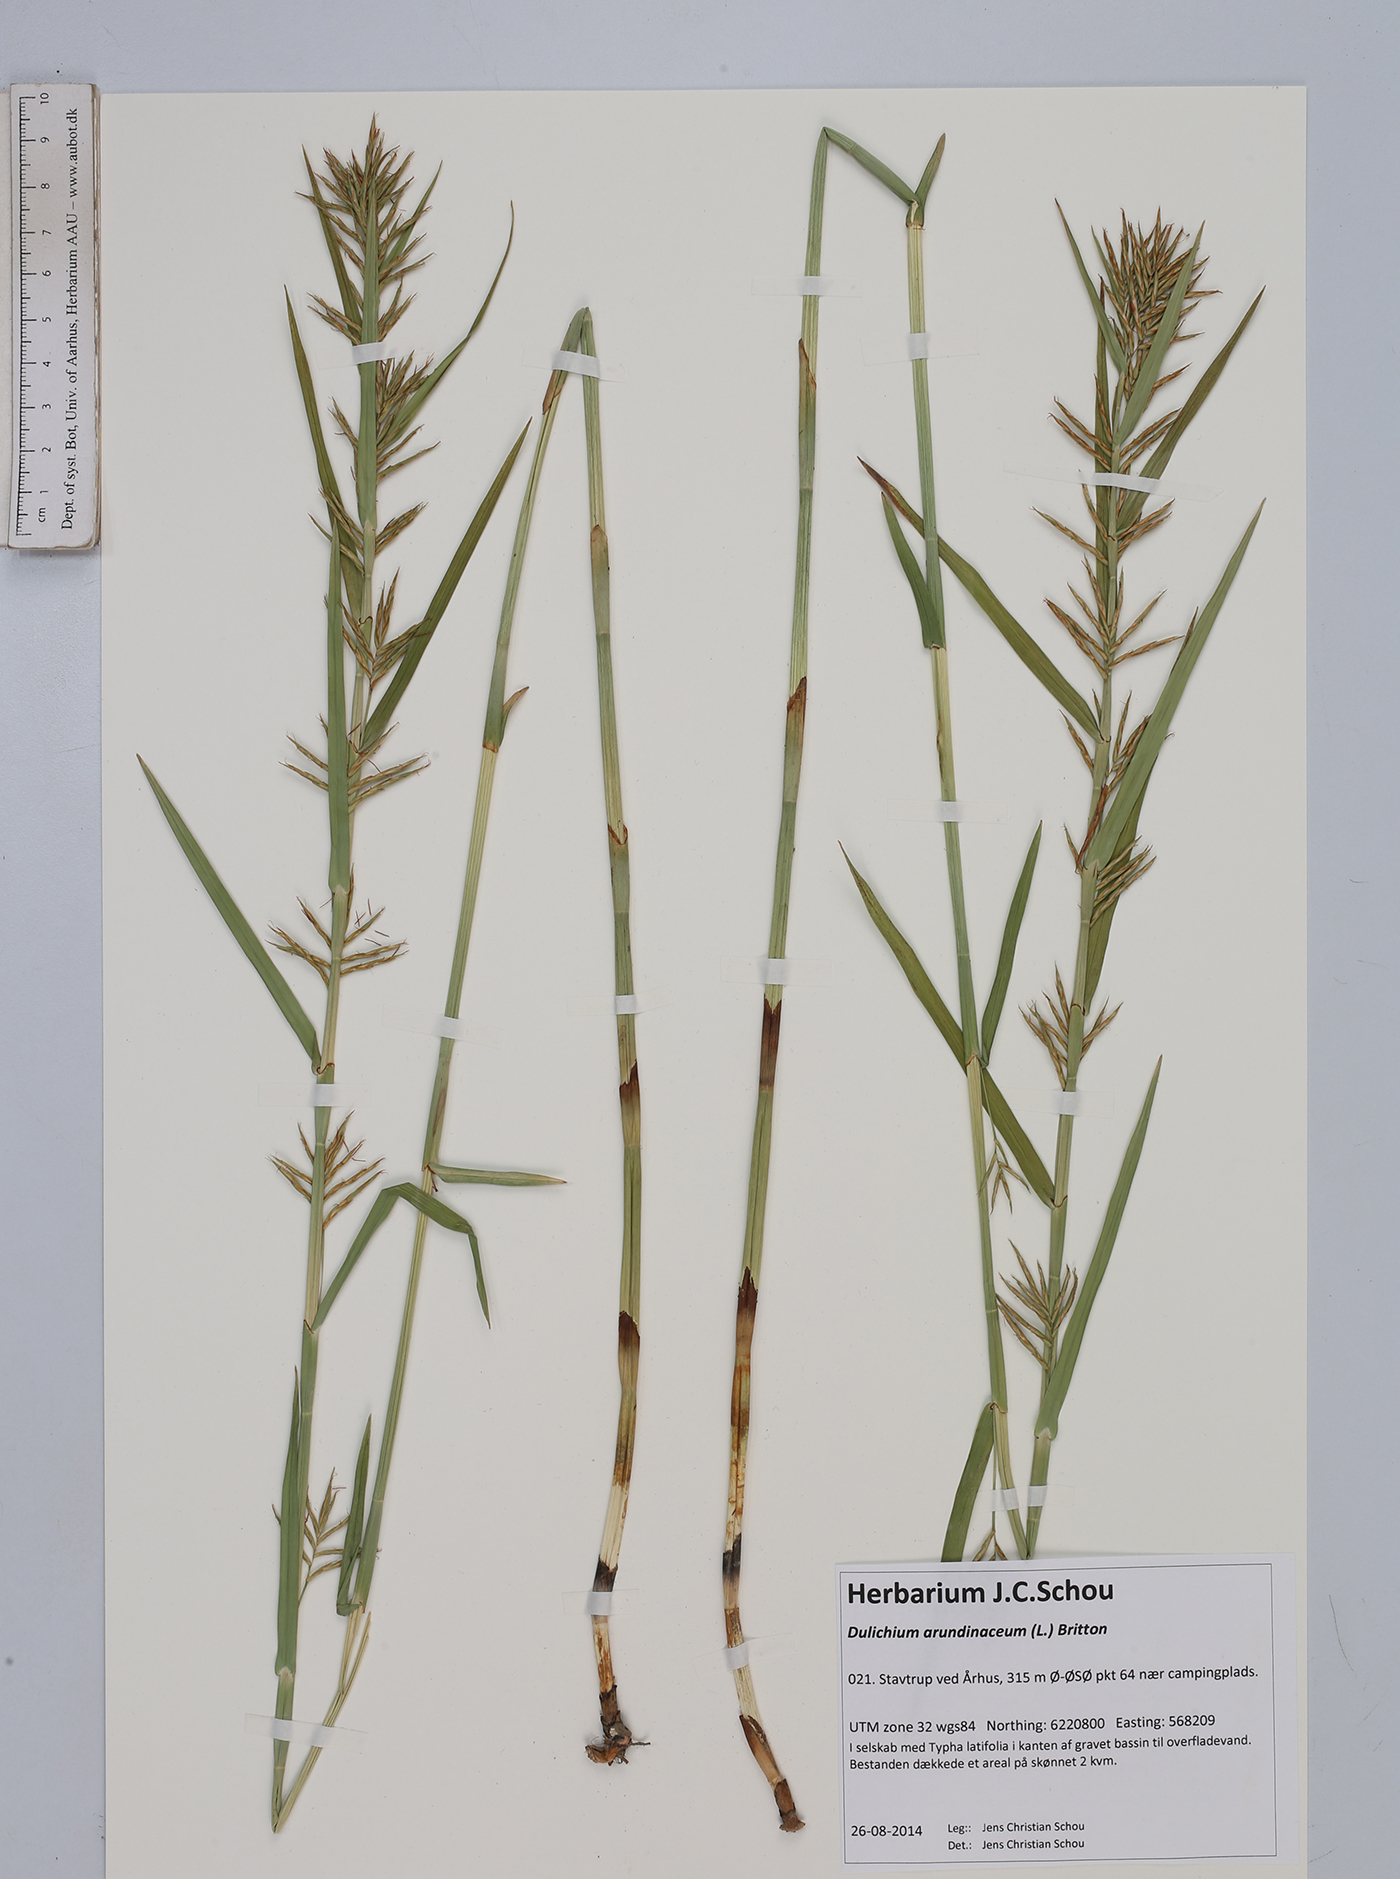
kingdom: Plantae
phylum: Tracheophyta
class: Liliopsida
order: Poales
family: Cyperaceae
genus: Dulichium
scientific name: Dulichium arundinaceum
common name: Three-way sedge
